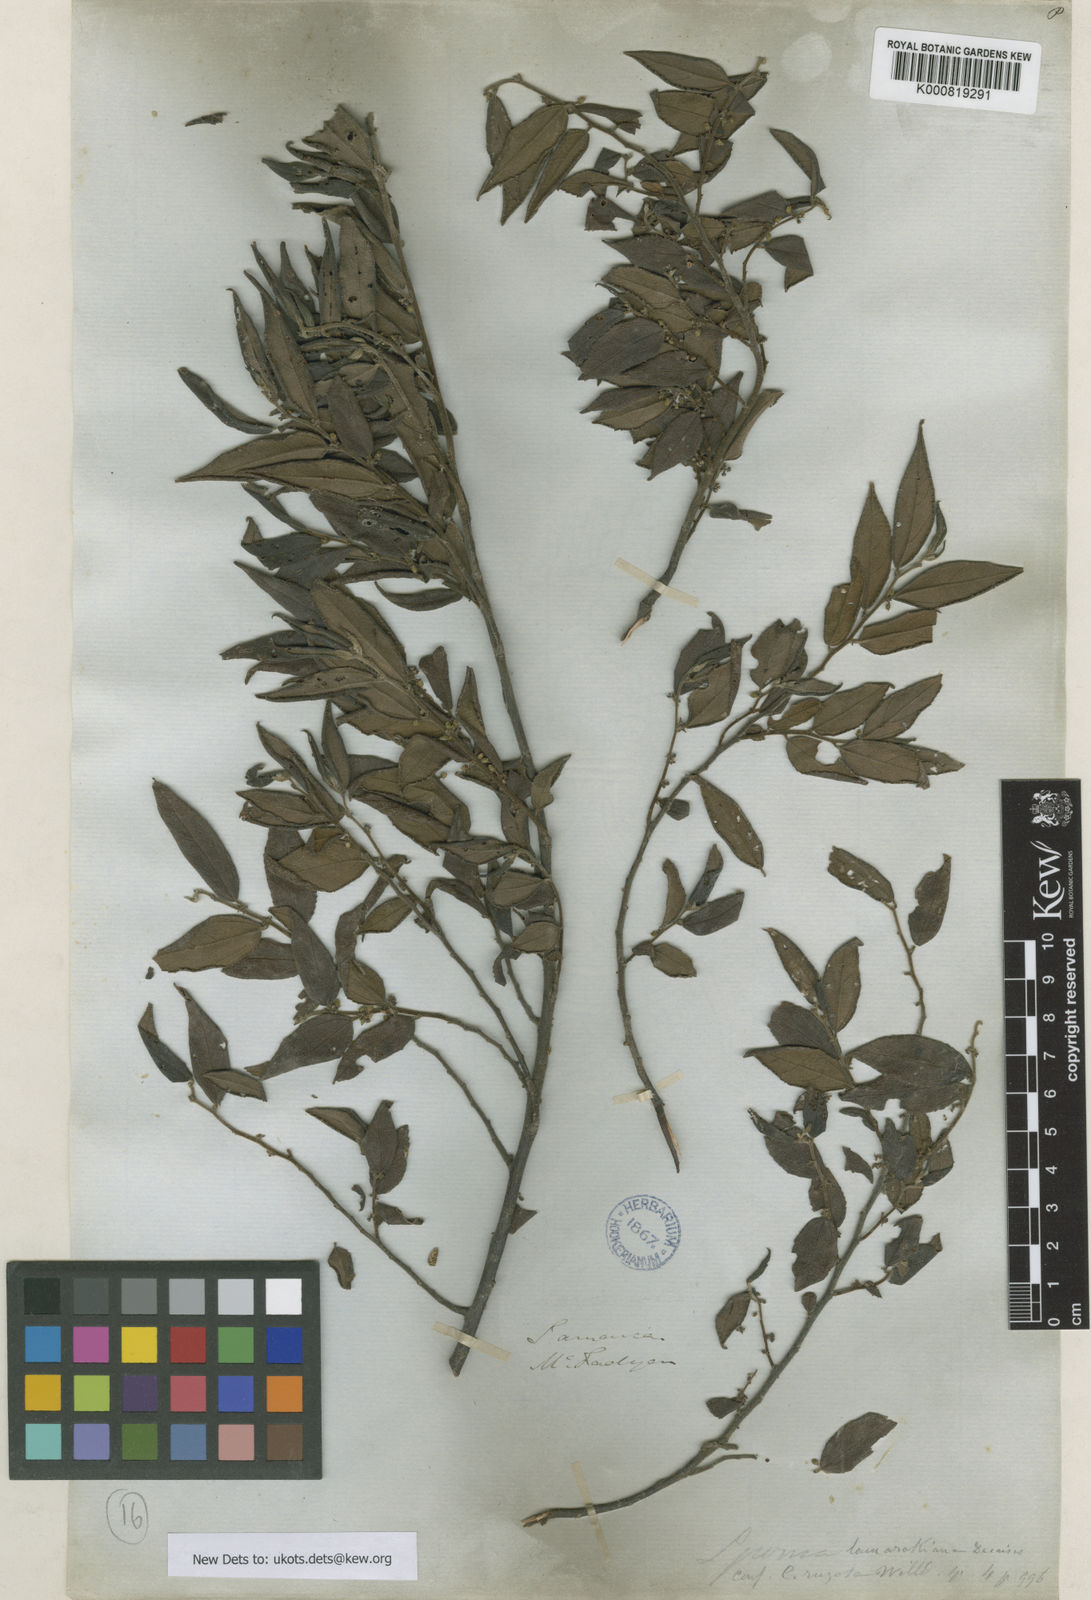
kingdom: Plantae
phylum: Tracheophyta
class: Magnoliopsida
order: Rosales
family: Cannabaceae
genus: Trema
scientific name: Trema lamarckianum
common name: Lamarck's trema
